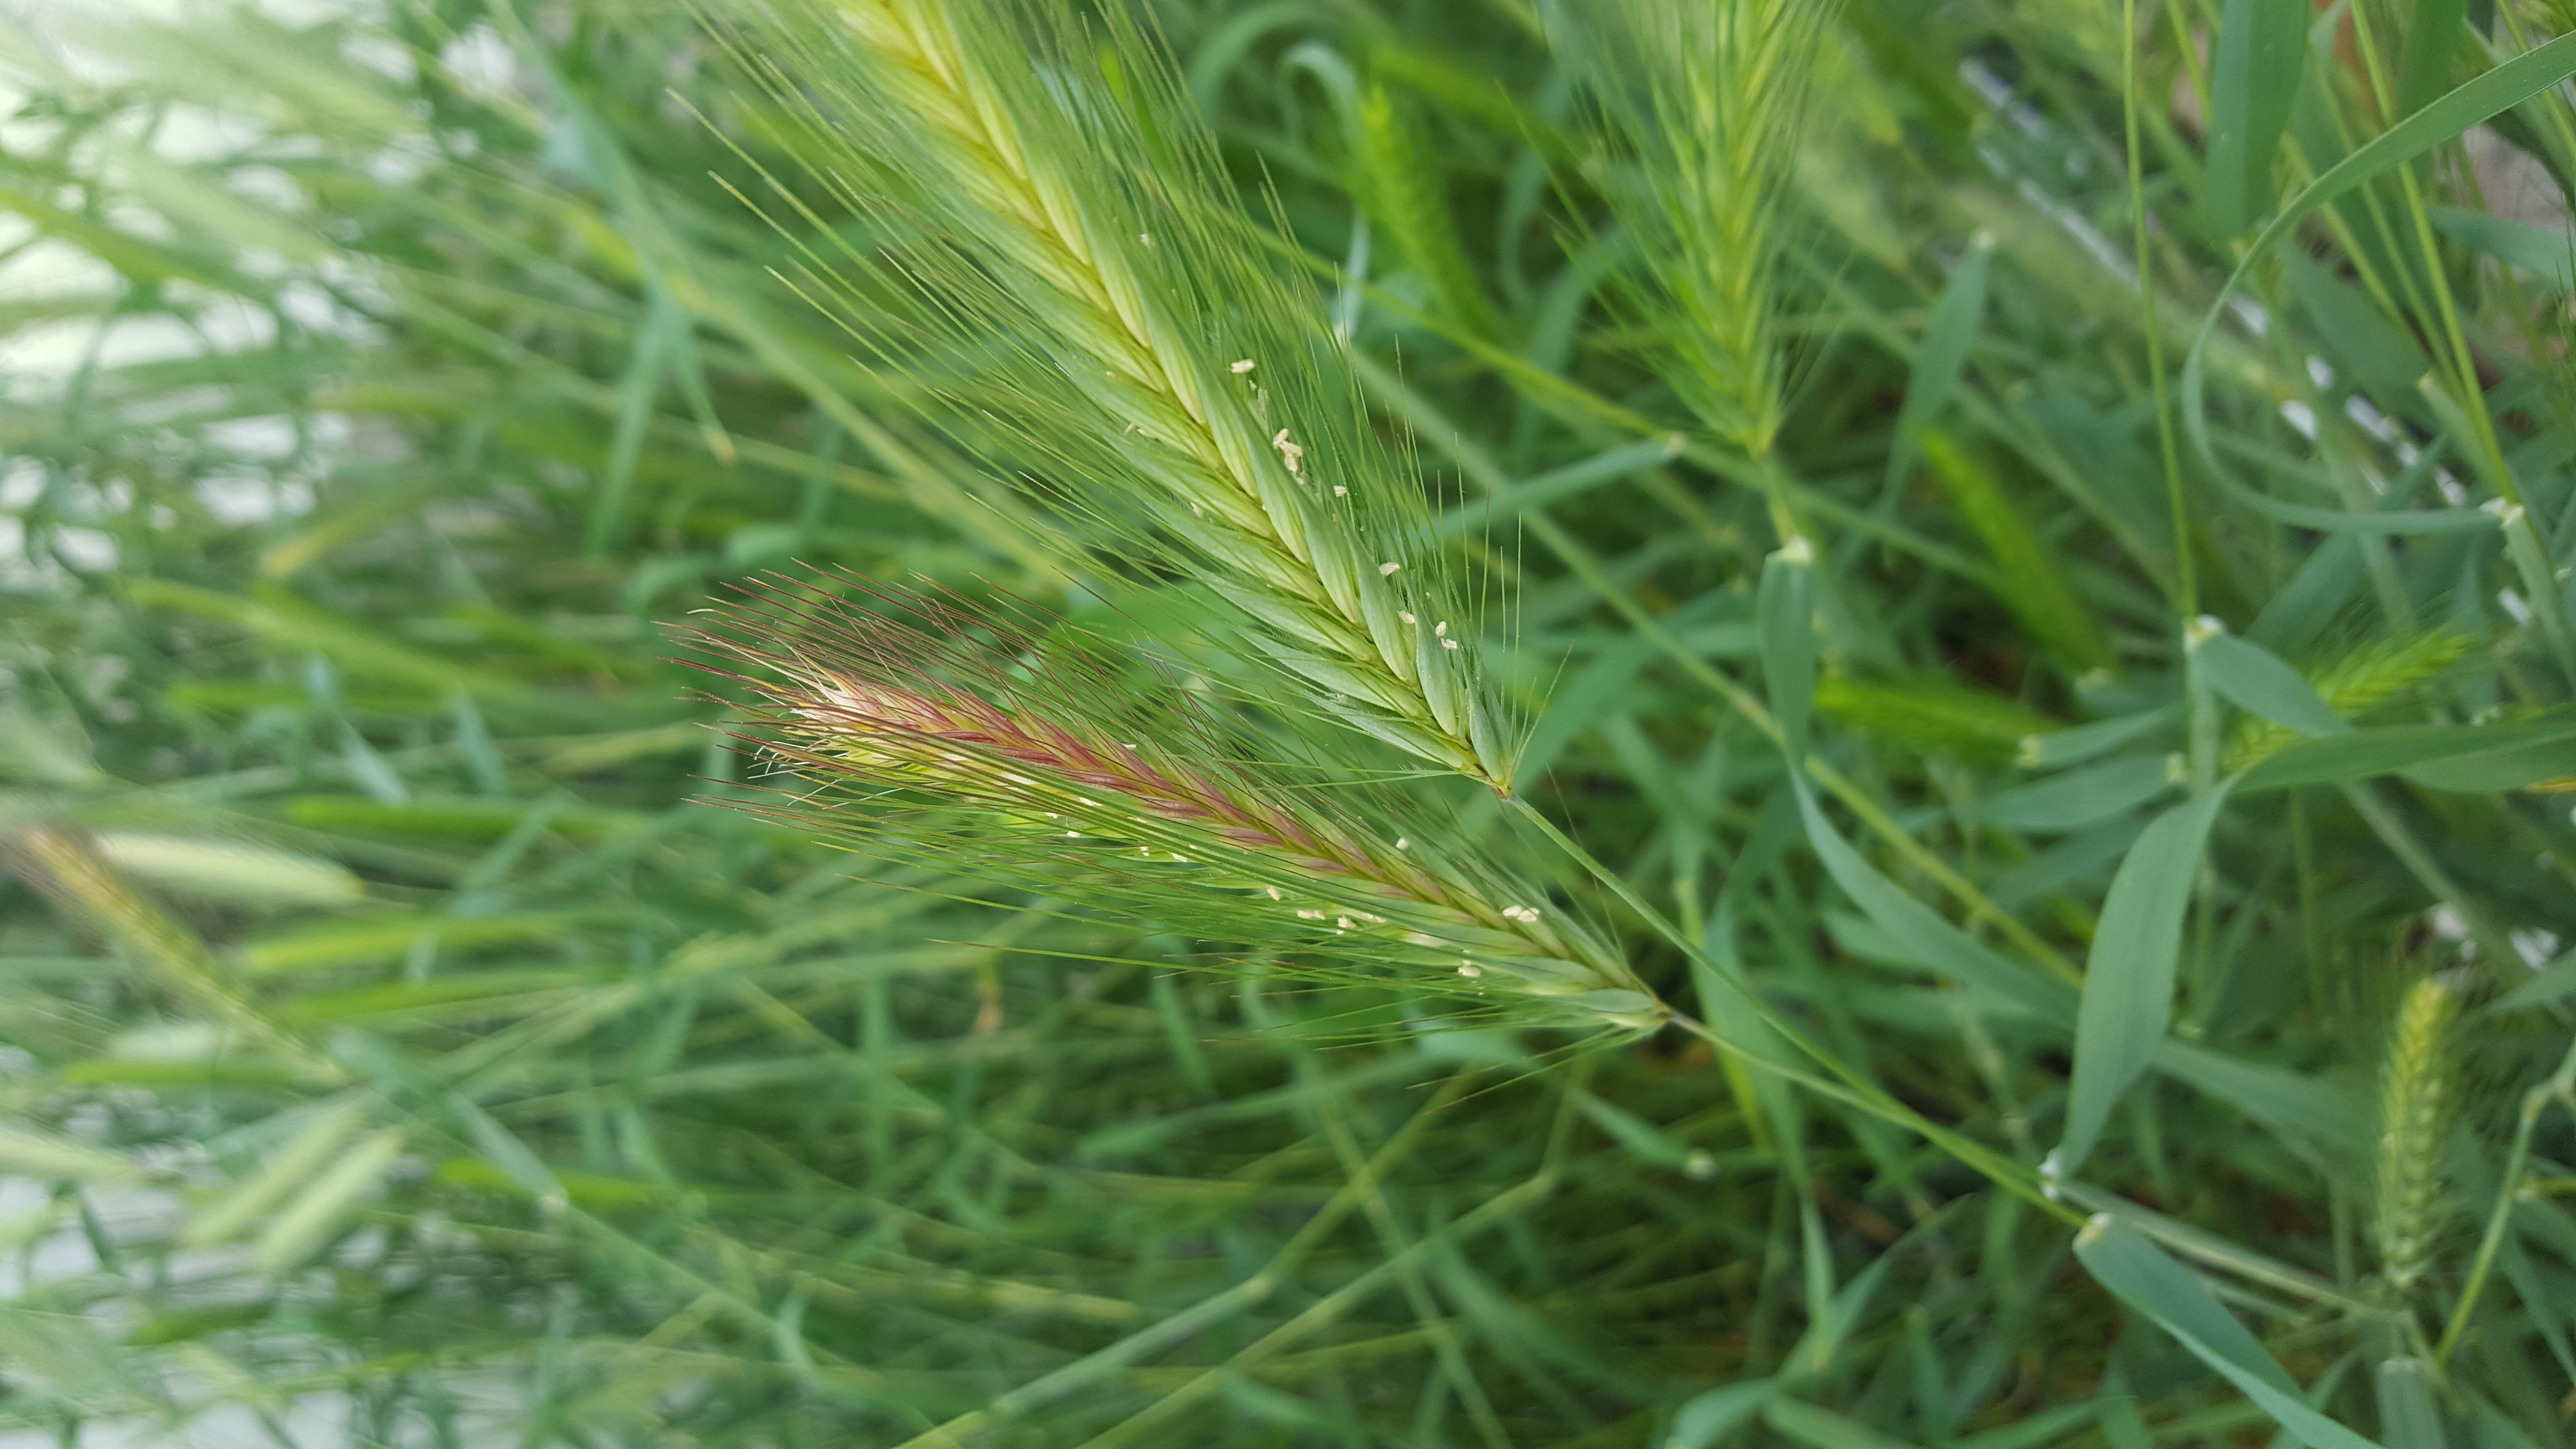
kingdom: Plantae
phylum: Tracheophyta
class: Liliopsida
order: Poales
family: Poaceae
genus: Hordeum
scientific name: Hordeum murinum
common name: Wall barley
